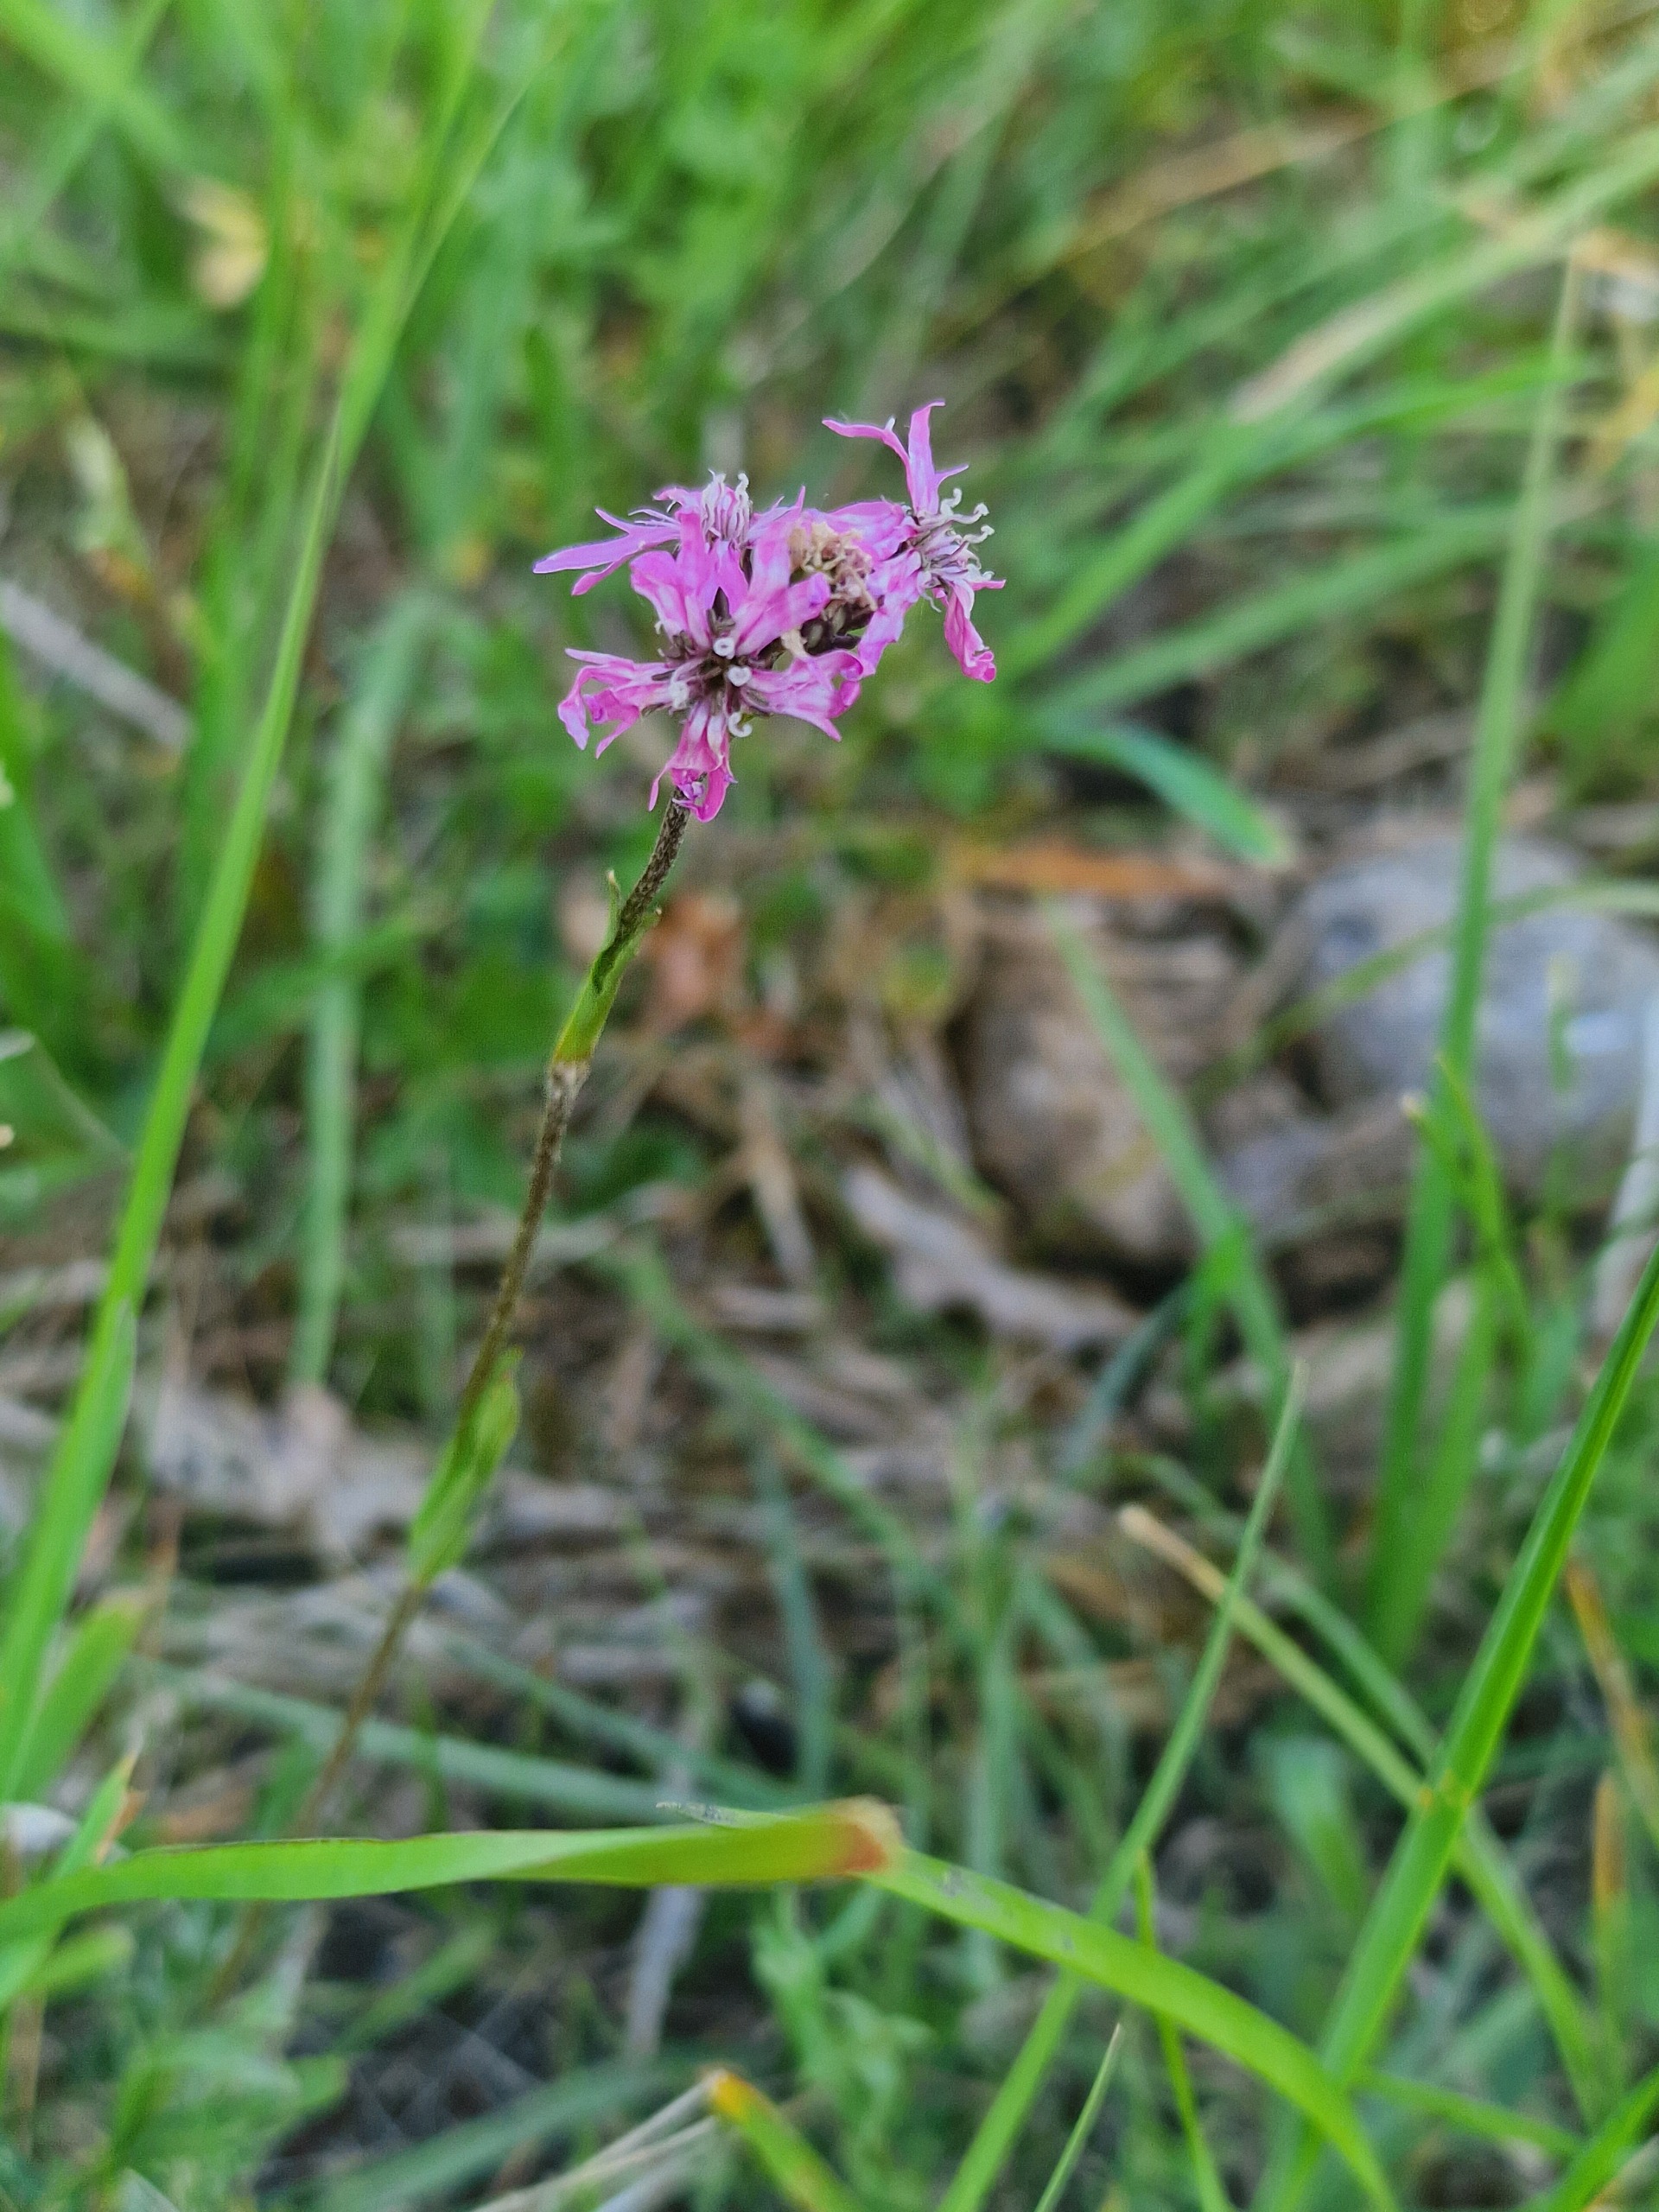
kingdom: Plantae
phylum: Tracheophyta
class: Magnoliopsida
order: Caryophyllales
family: Caryophyllaceae
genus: Silene
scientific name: Silene flos-cuculi
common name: Trævlekrone
